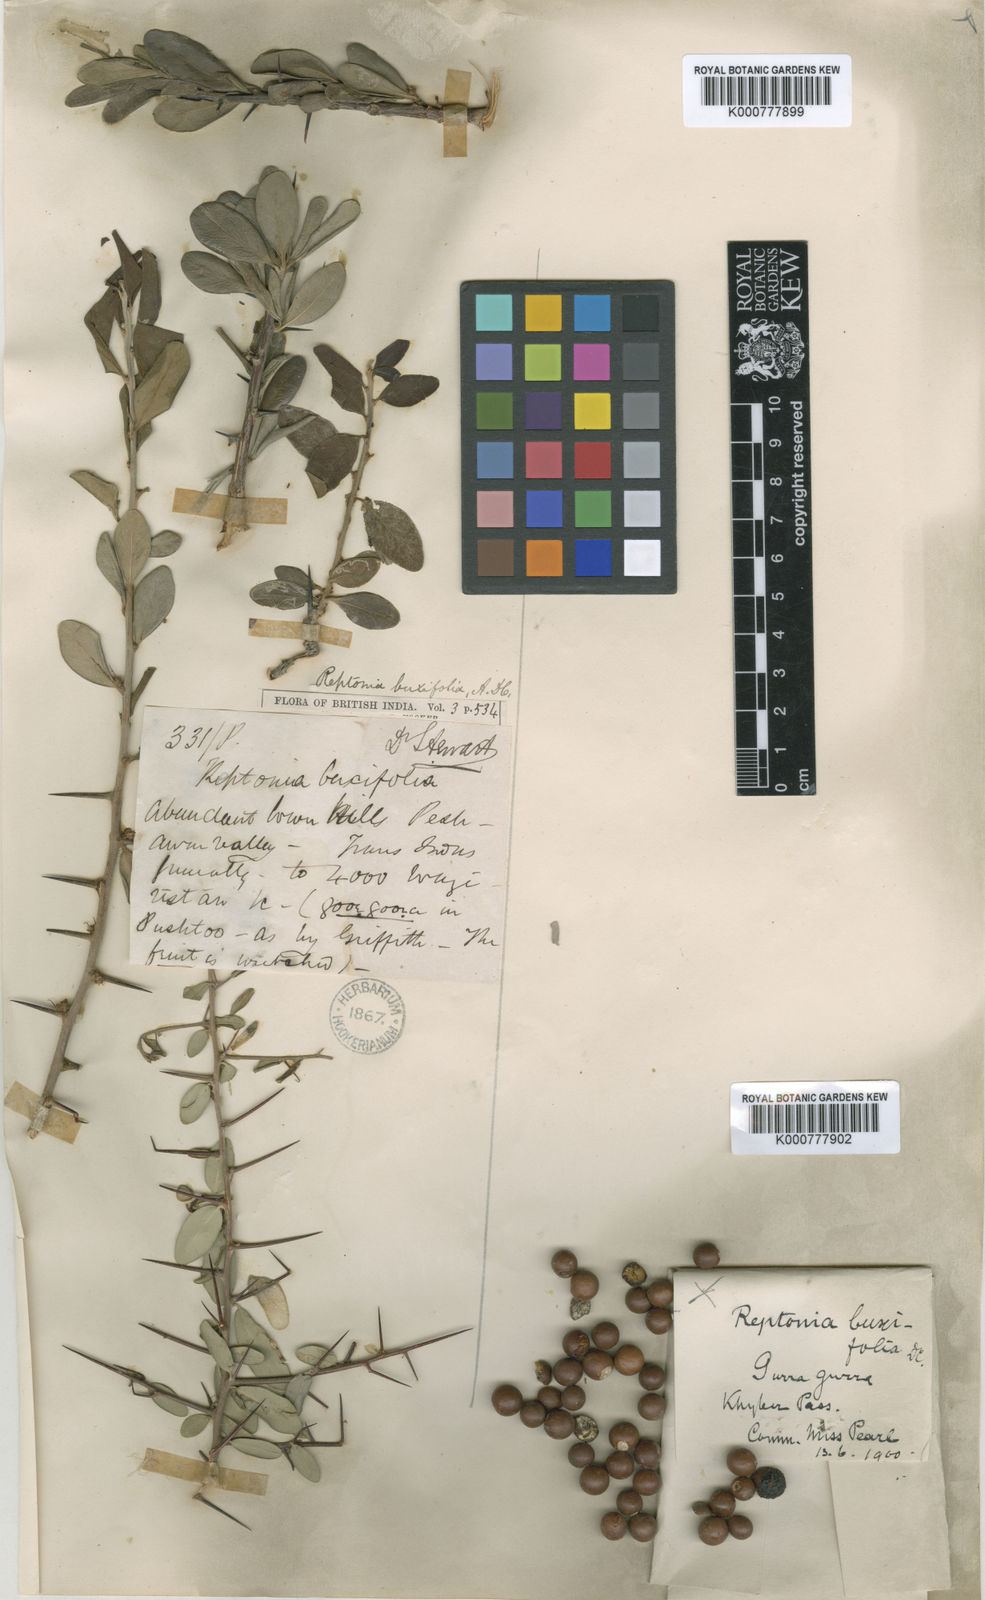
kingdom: Plantae
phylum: Tracheophyta
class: Magnoliopsida
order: Ericales
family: Sapotaceae
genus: Sideroxylon
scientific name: Sideroxylon mascatense
